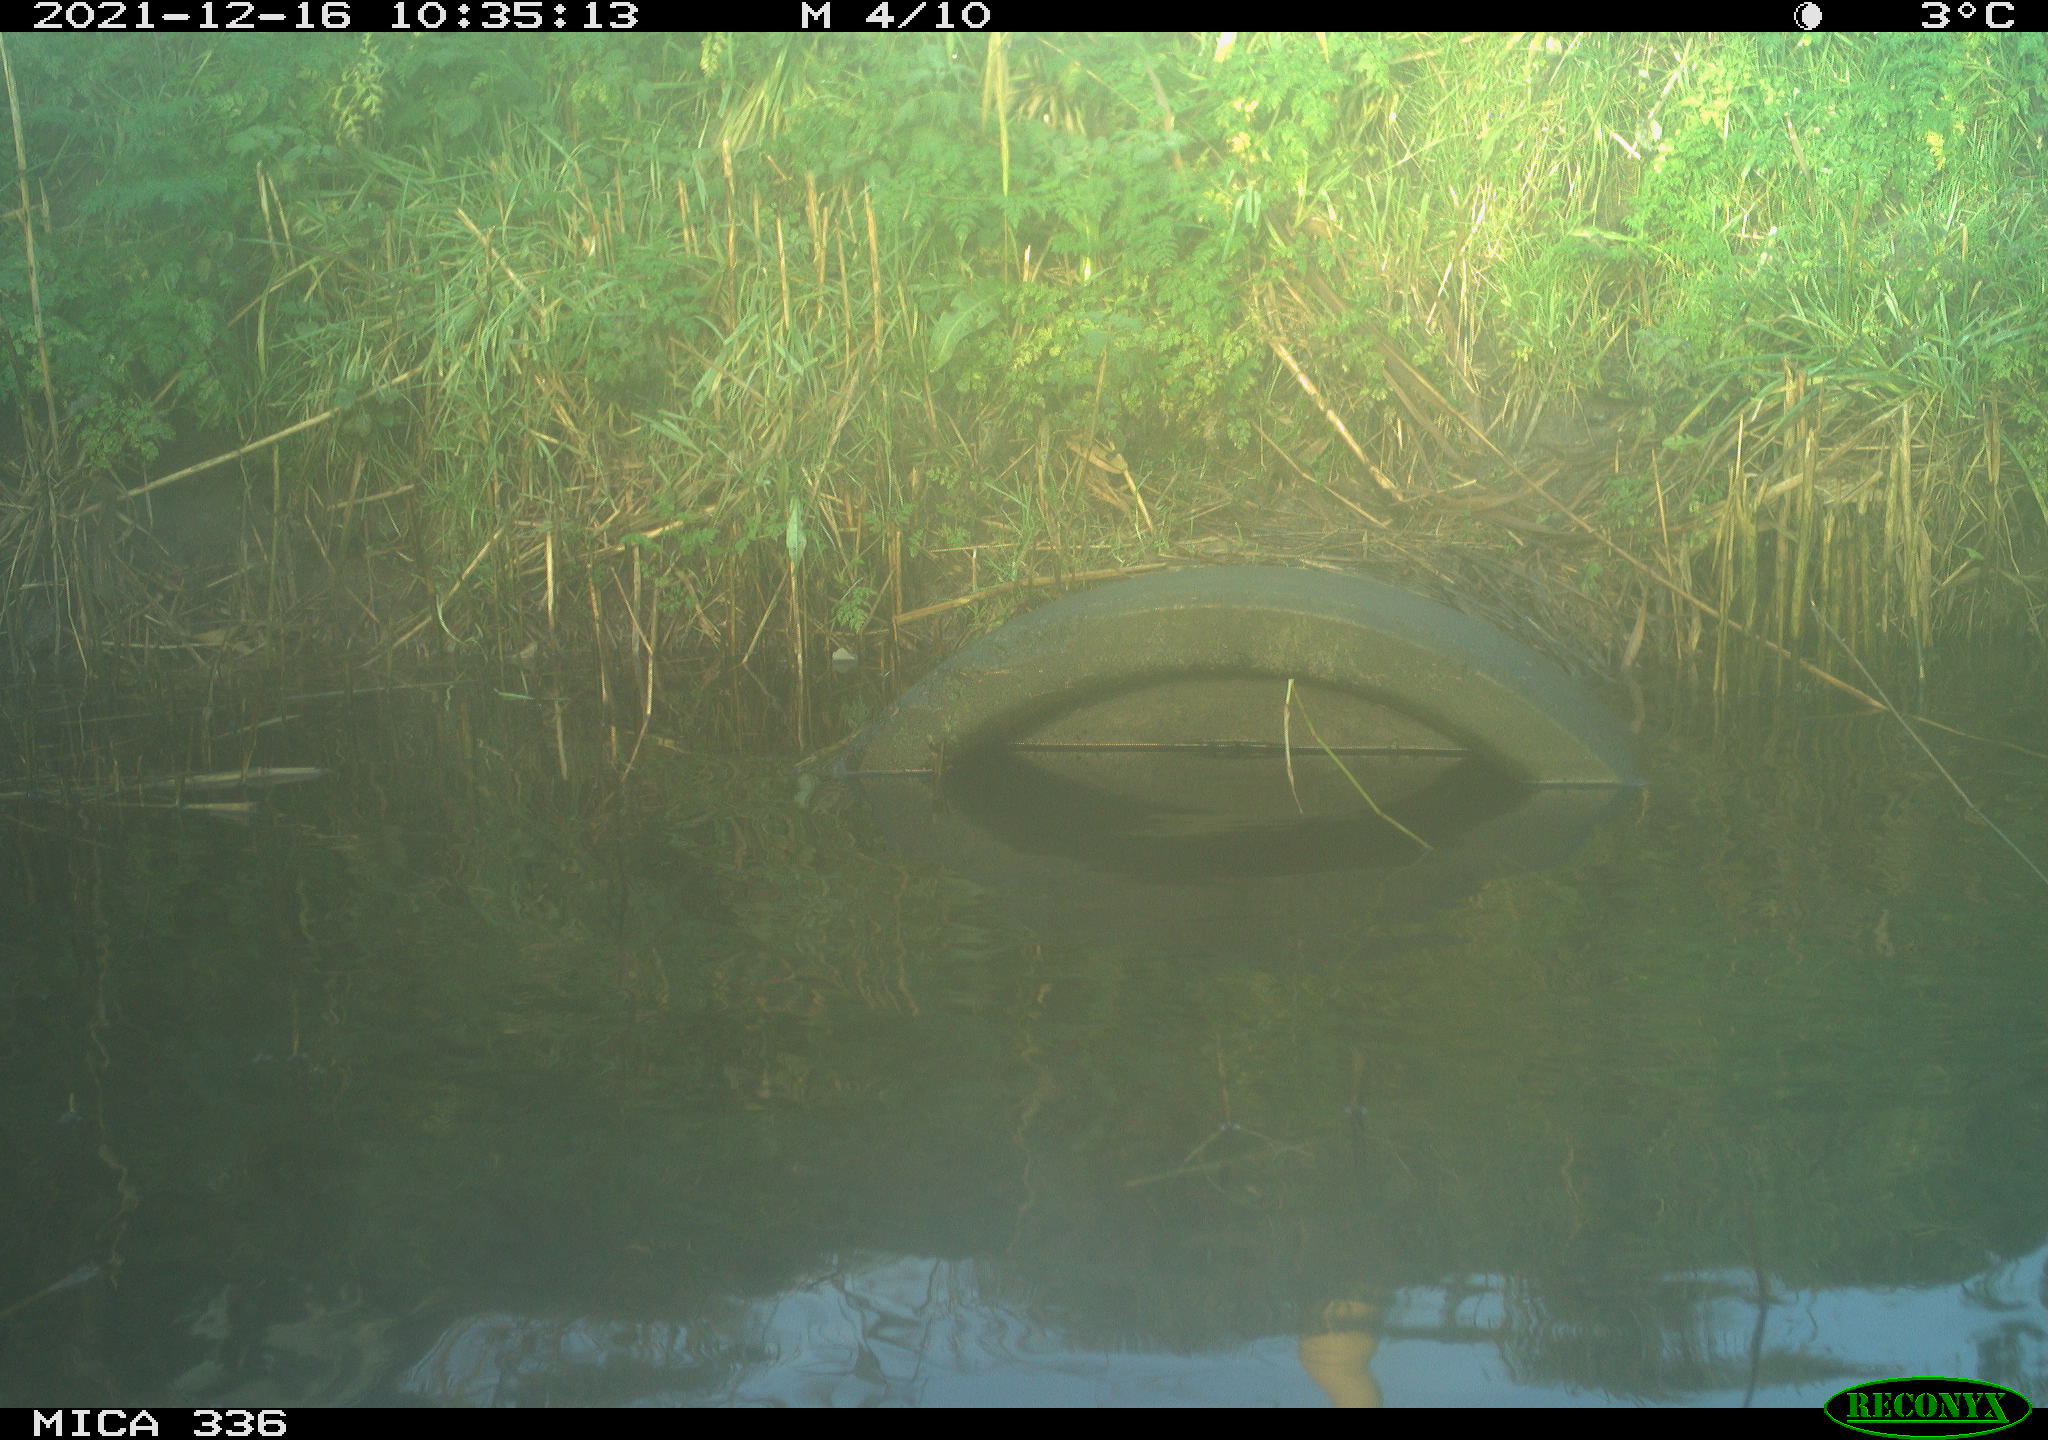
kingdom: Animalia
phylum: Chordata
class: Aves
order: Anseriformes
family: Anatidae
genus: Anas
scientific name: Anas platyrhynchos
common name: Mallard
